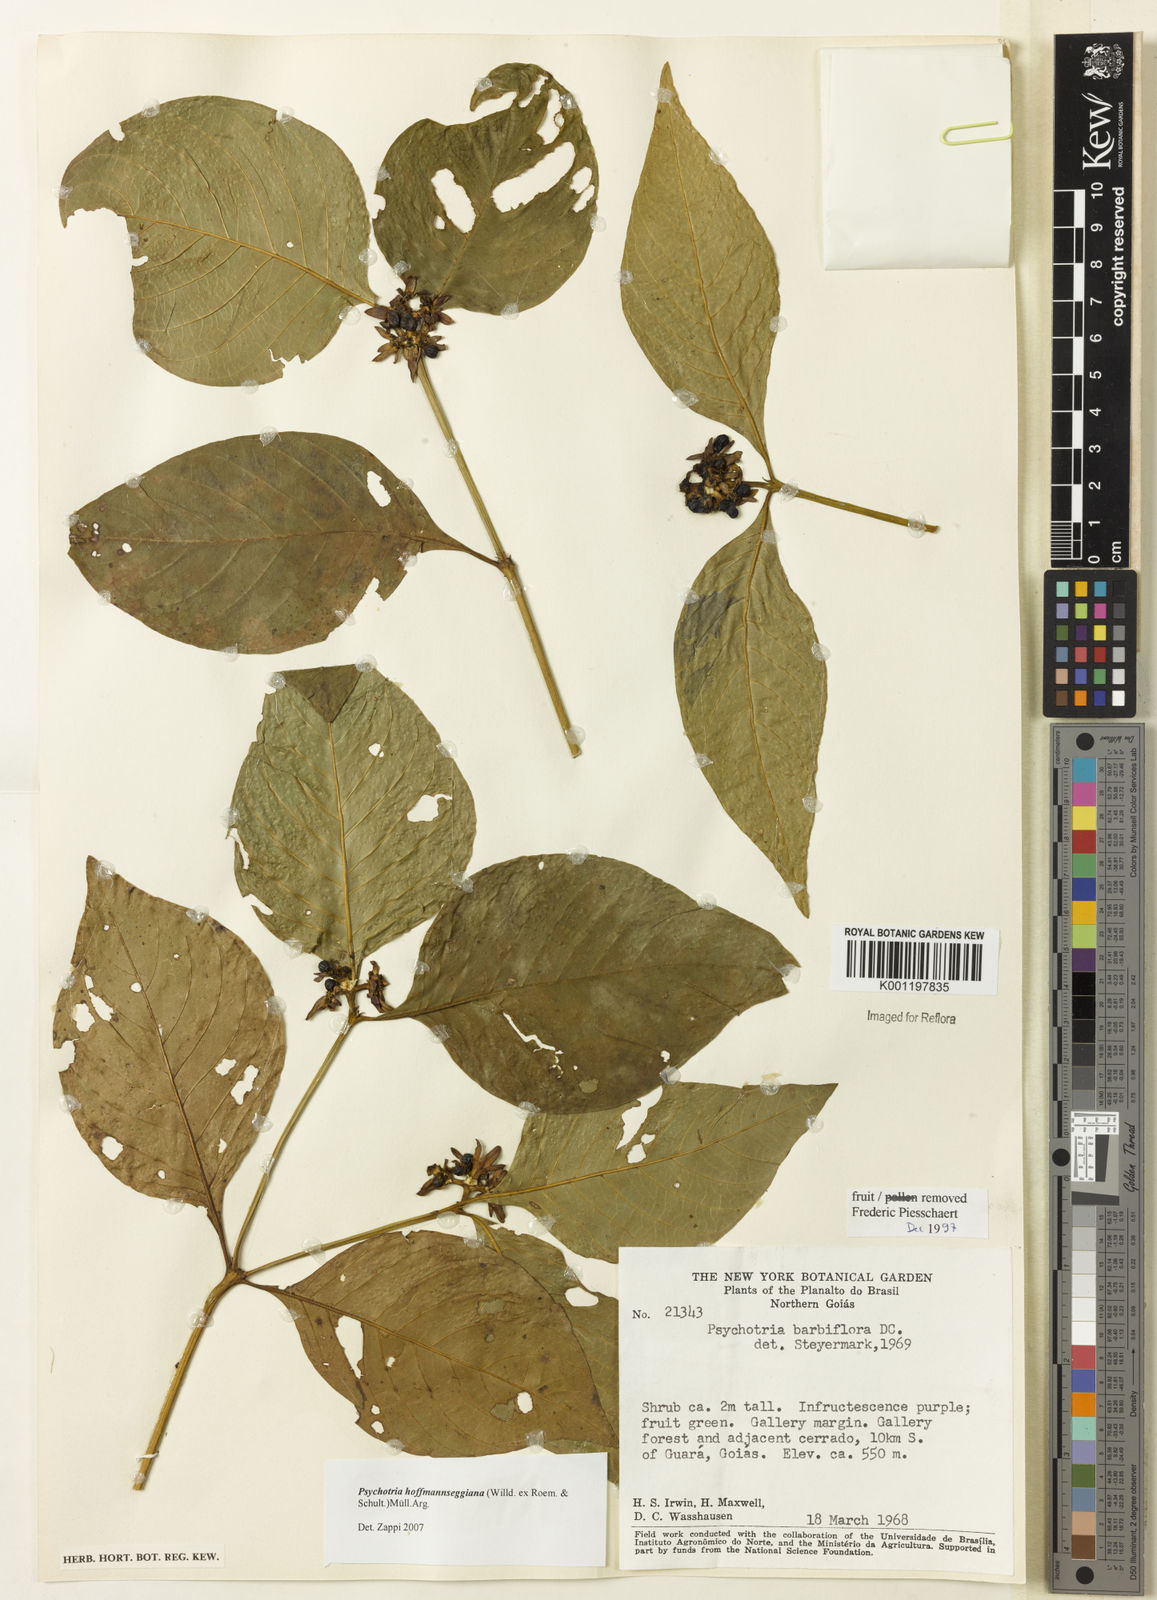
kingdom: Plantae
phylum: Tracheophyta
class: Magnoliopsida
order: Gentianales
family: Rubiaceae
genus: Psychotria
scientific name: Psychotria
